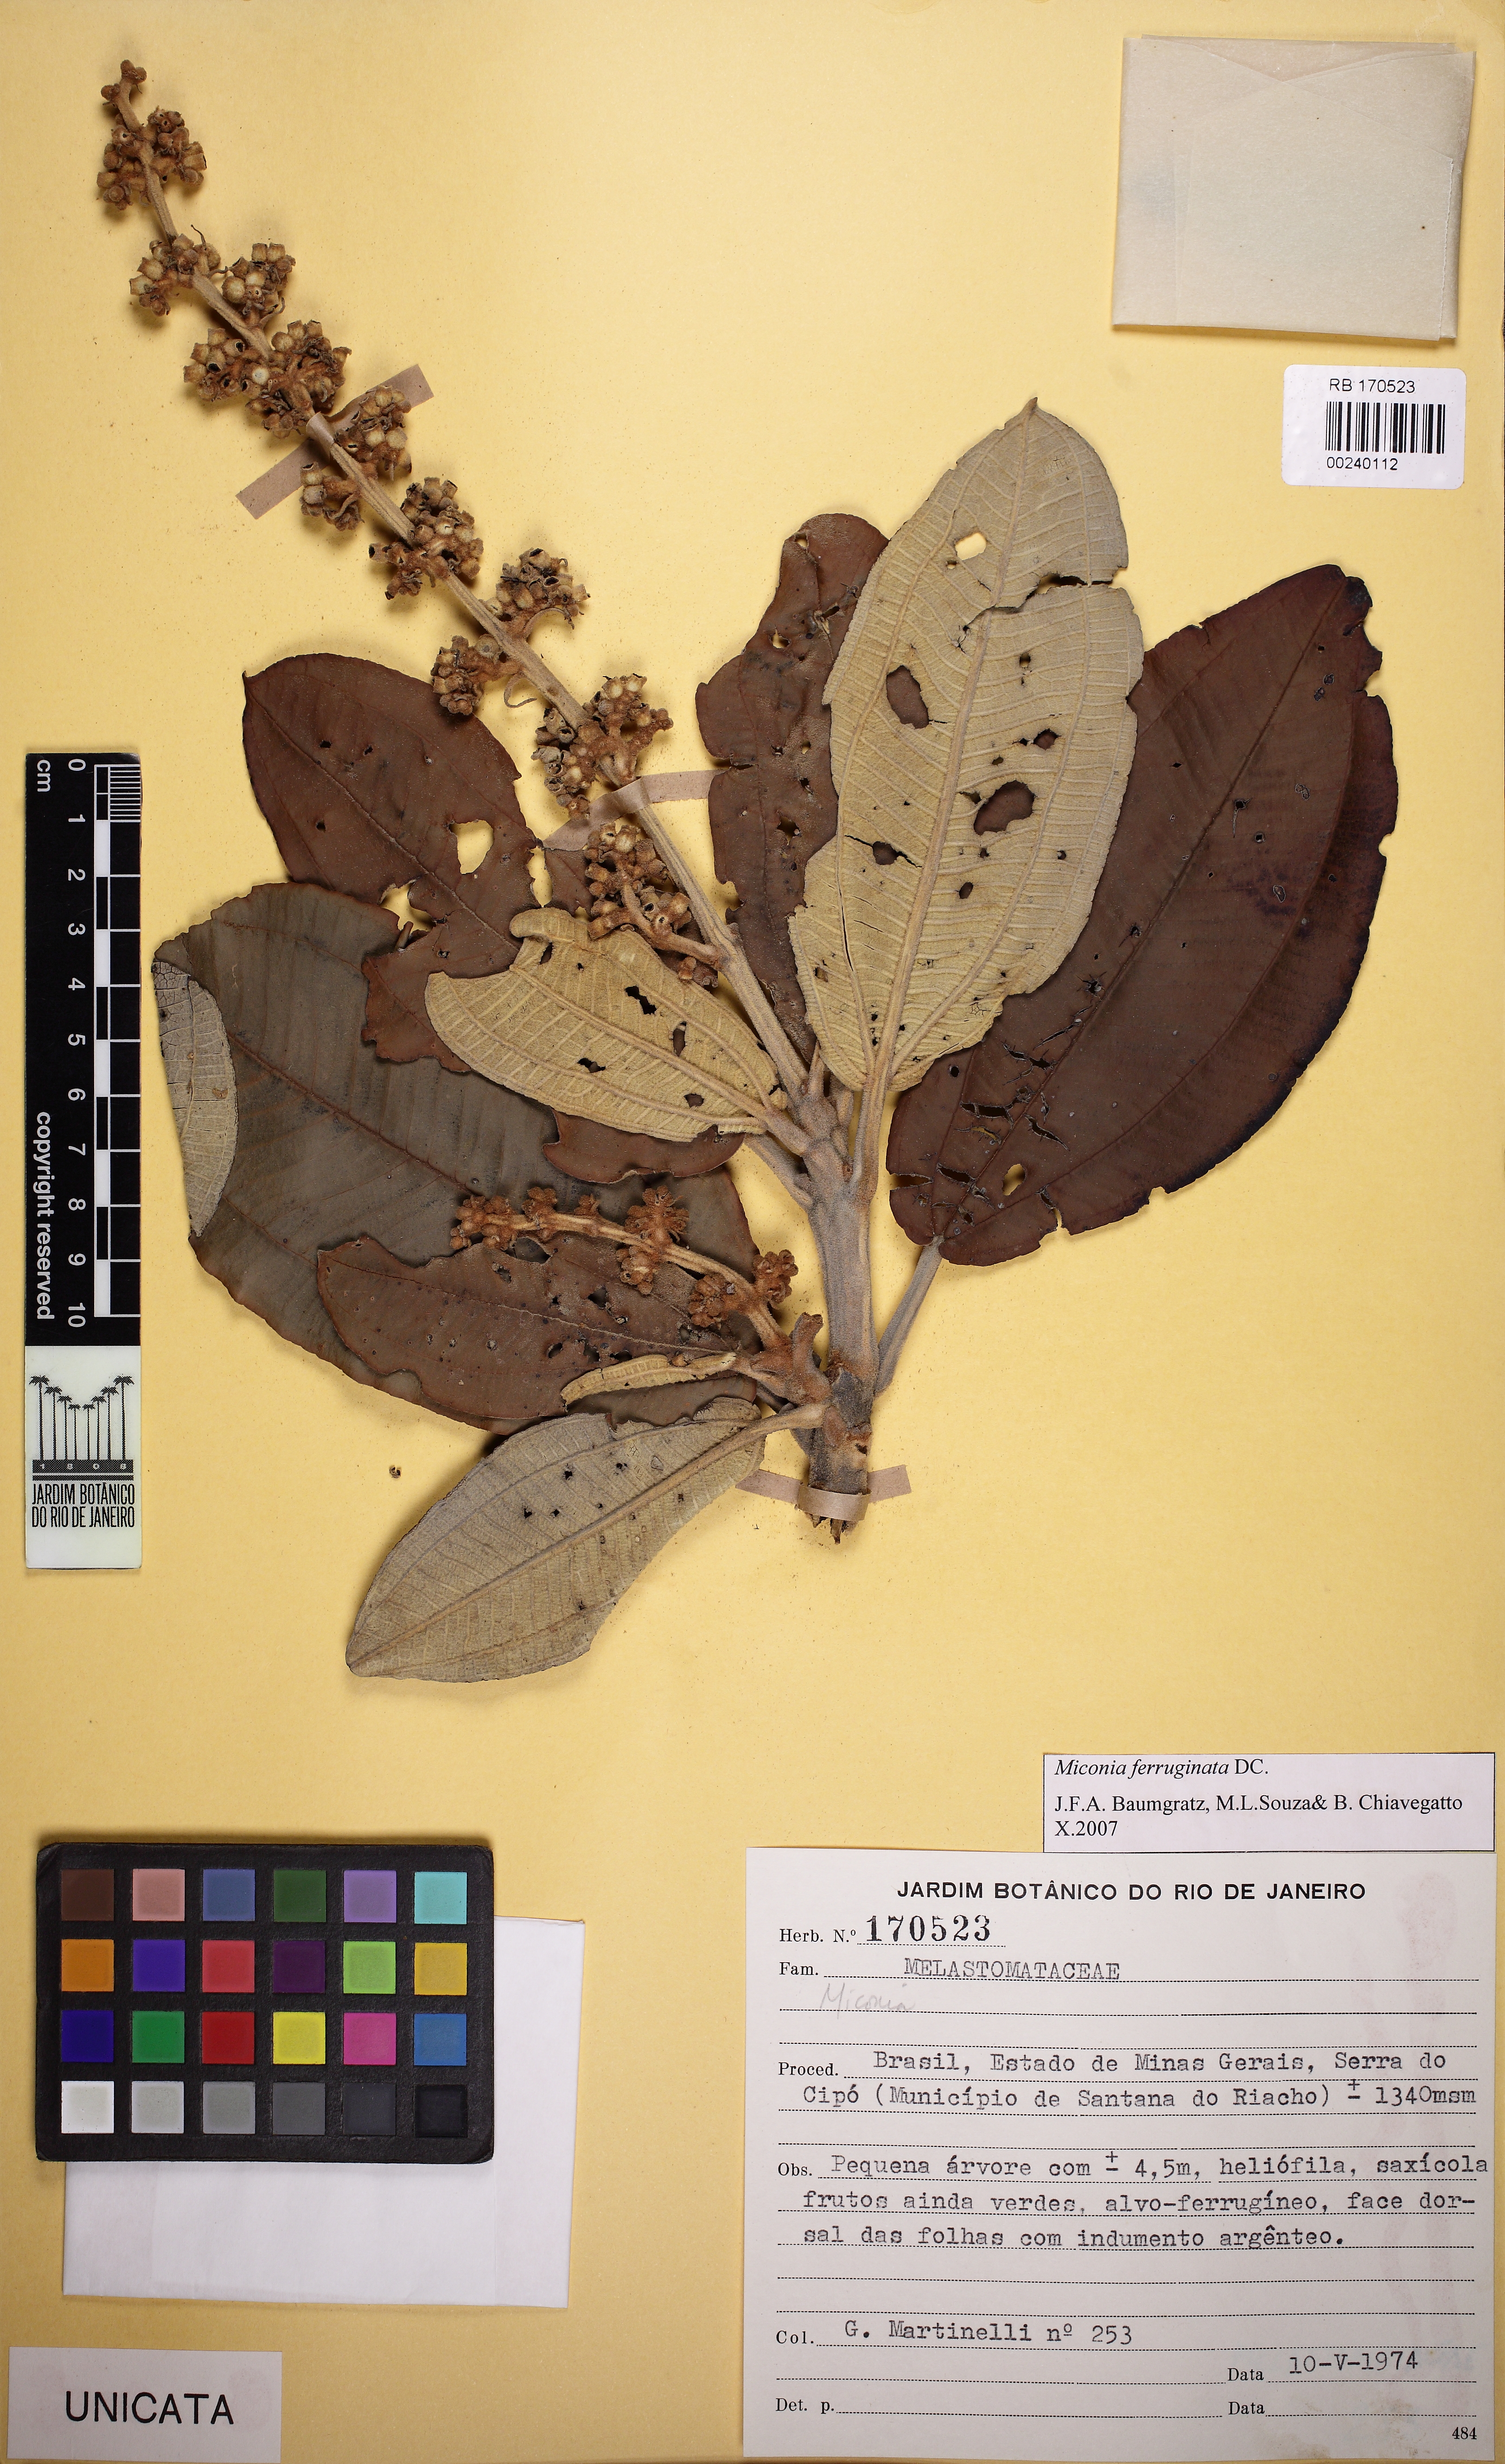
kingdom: Plantae
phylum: Tracheophyta
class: Magnoliopsida
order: Myrtales
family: Melastomataceae
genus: Miconia
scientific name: Miconia ferruginata
